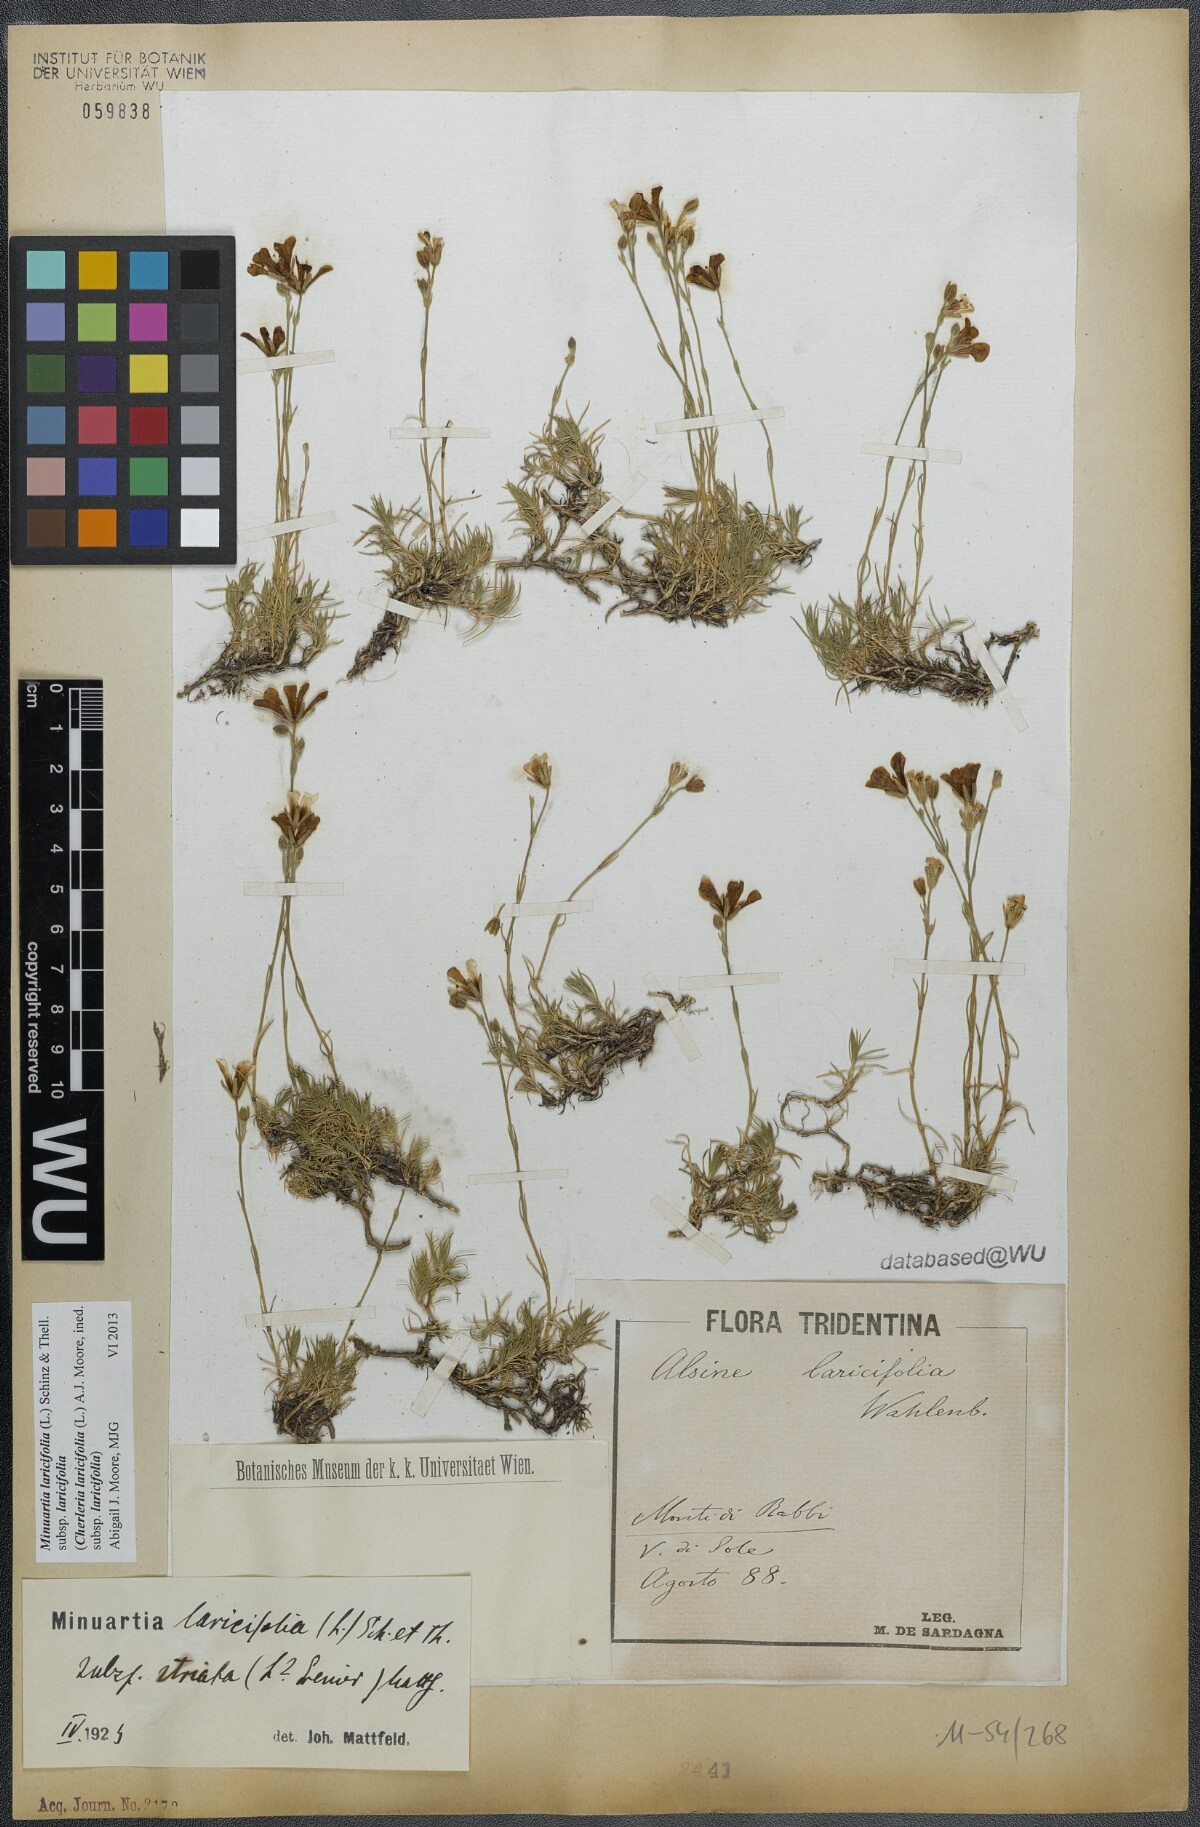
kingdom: Plantae
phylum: Tracheophyta
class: Magnoliopsida
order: Caryophyllales
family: Caryophyllaceae
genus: Cherleria
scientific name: Cherleria laricifolia
